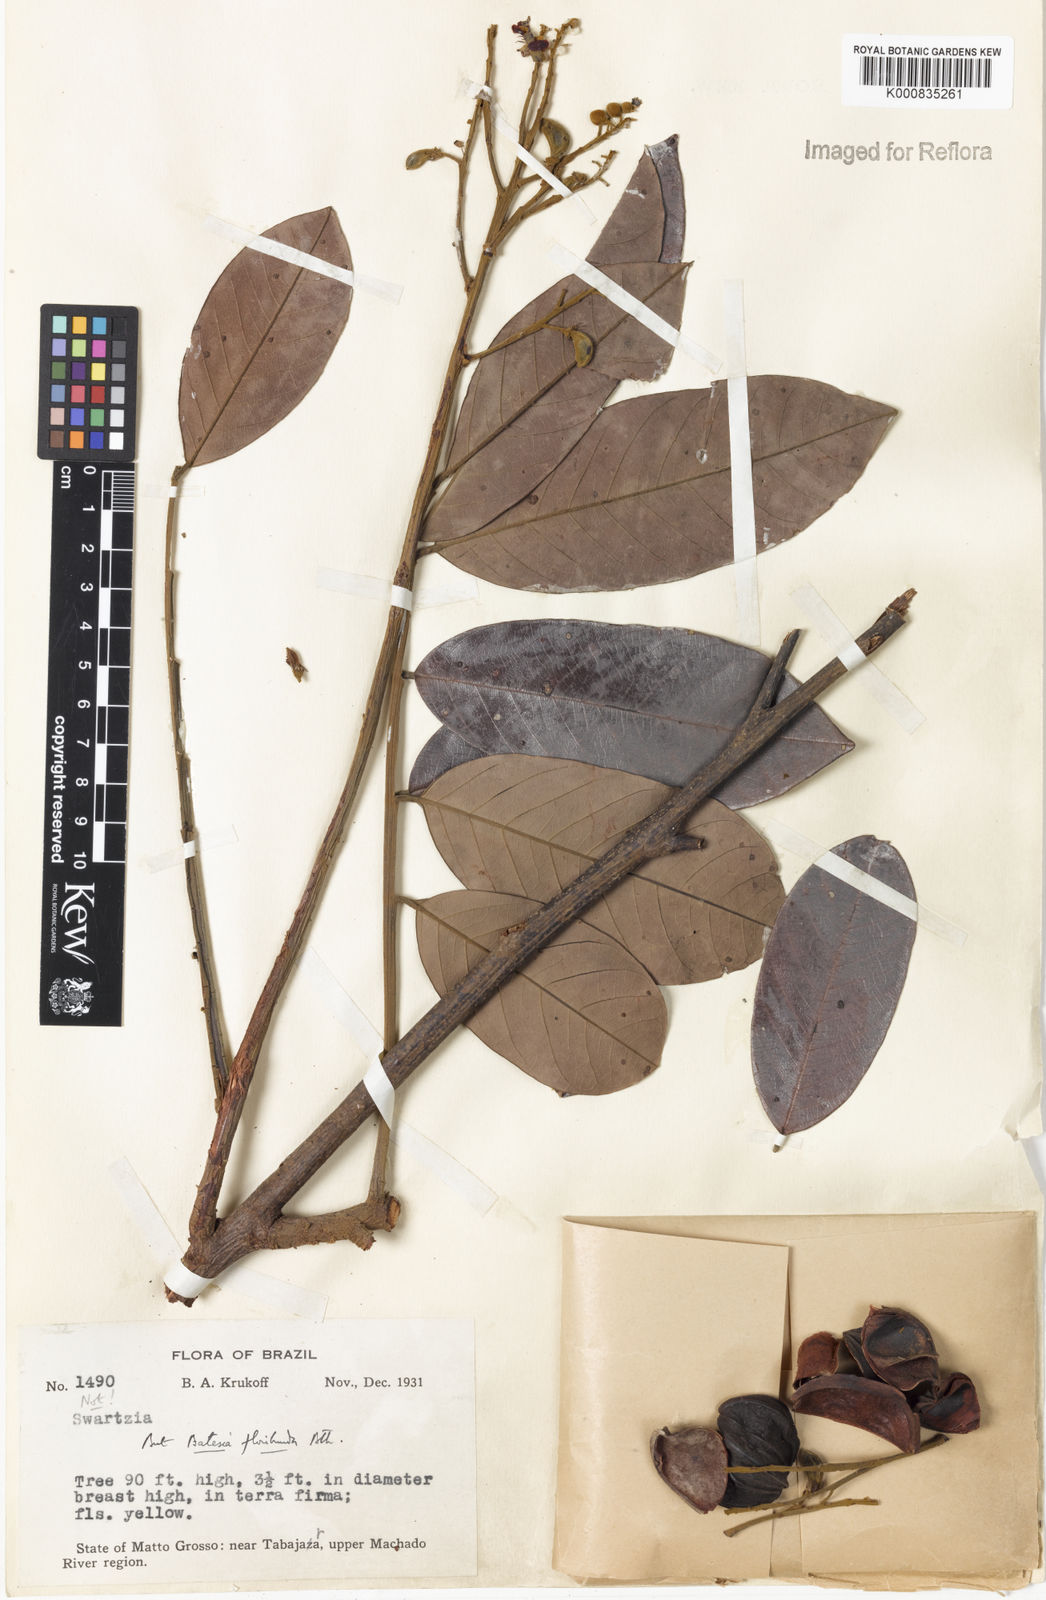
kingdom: Plantae
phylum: Tracheophyta
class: Magnoliopsida
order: Fabales
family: Fabaceae
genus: Batesia
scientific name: Batesia floribunda
